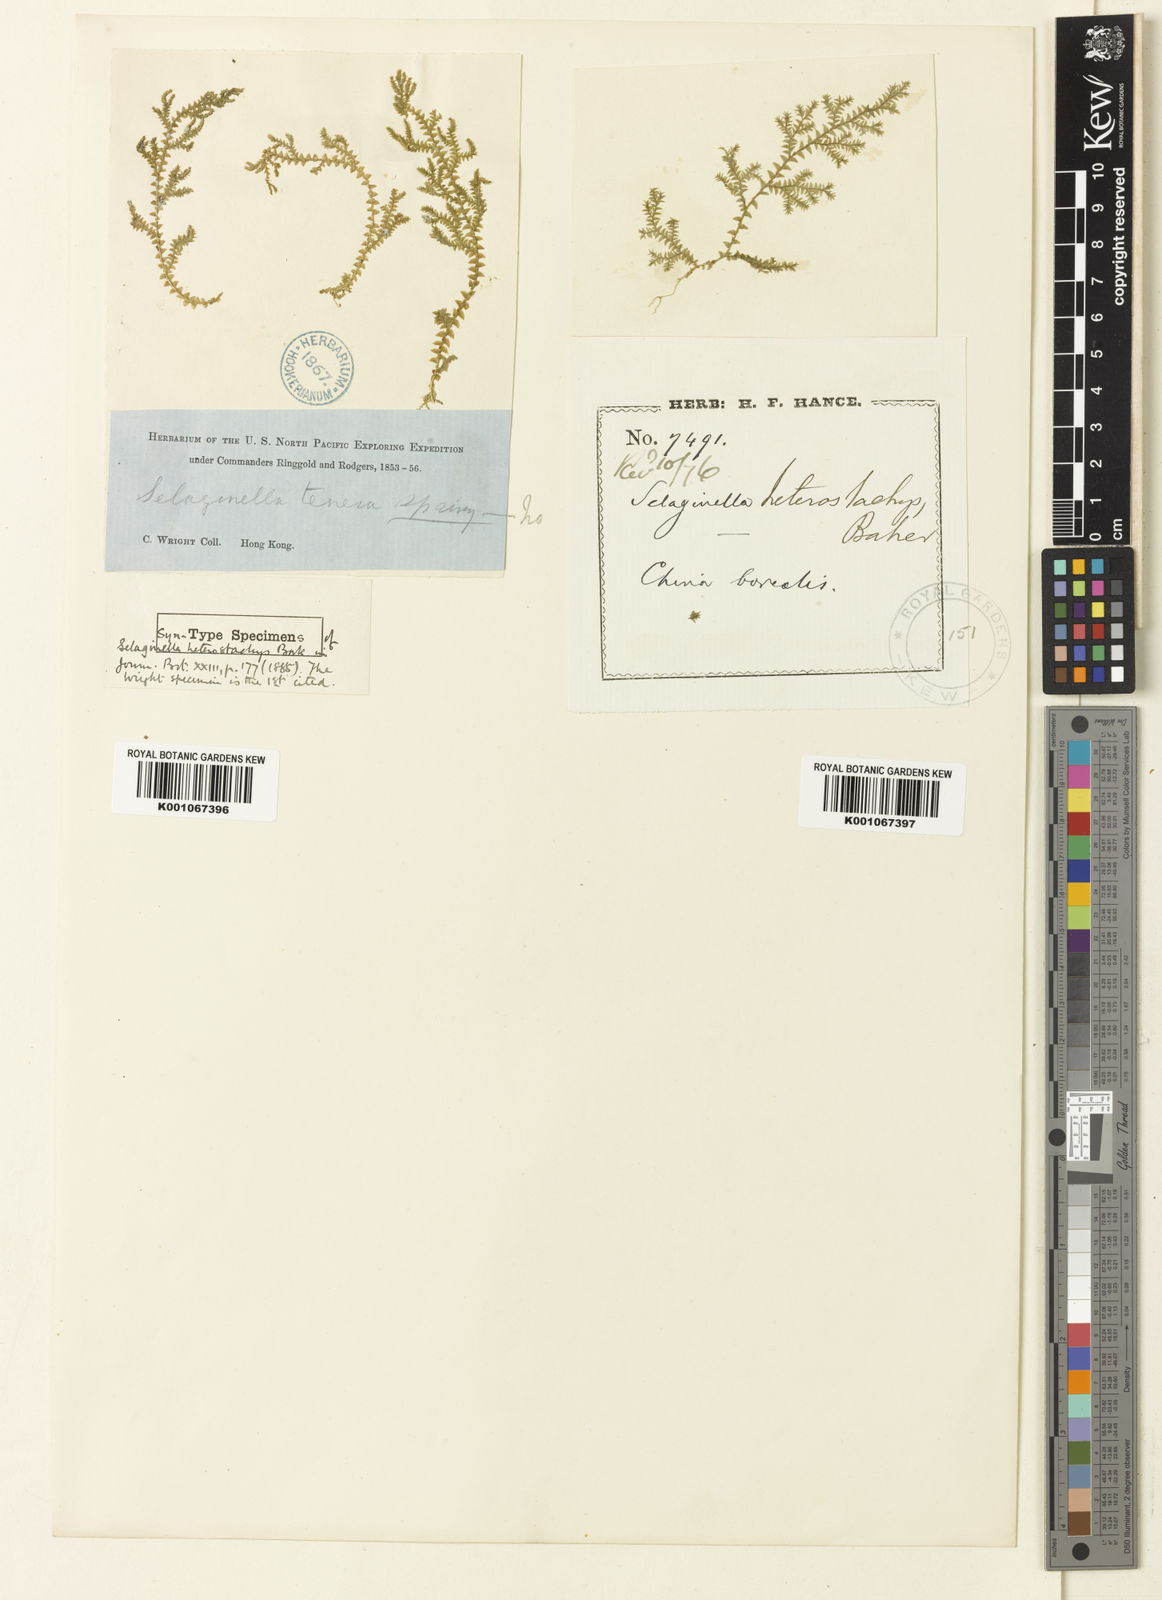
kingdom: Plantae
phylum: Tracheophyta
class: Lycopodiopsida
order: Selaginellales
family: Selaginellaceae
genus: Selaginella
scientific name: Selaginella heterostachys
